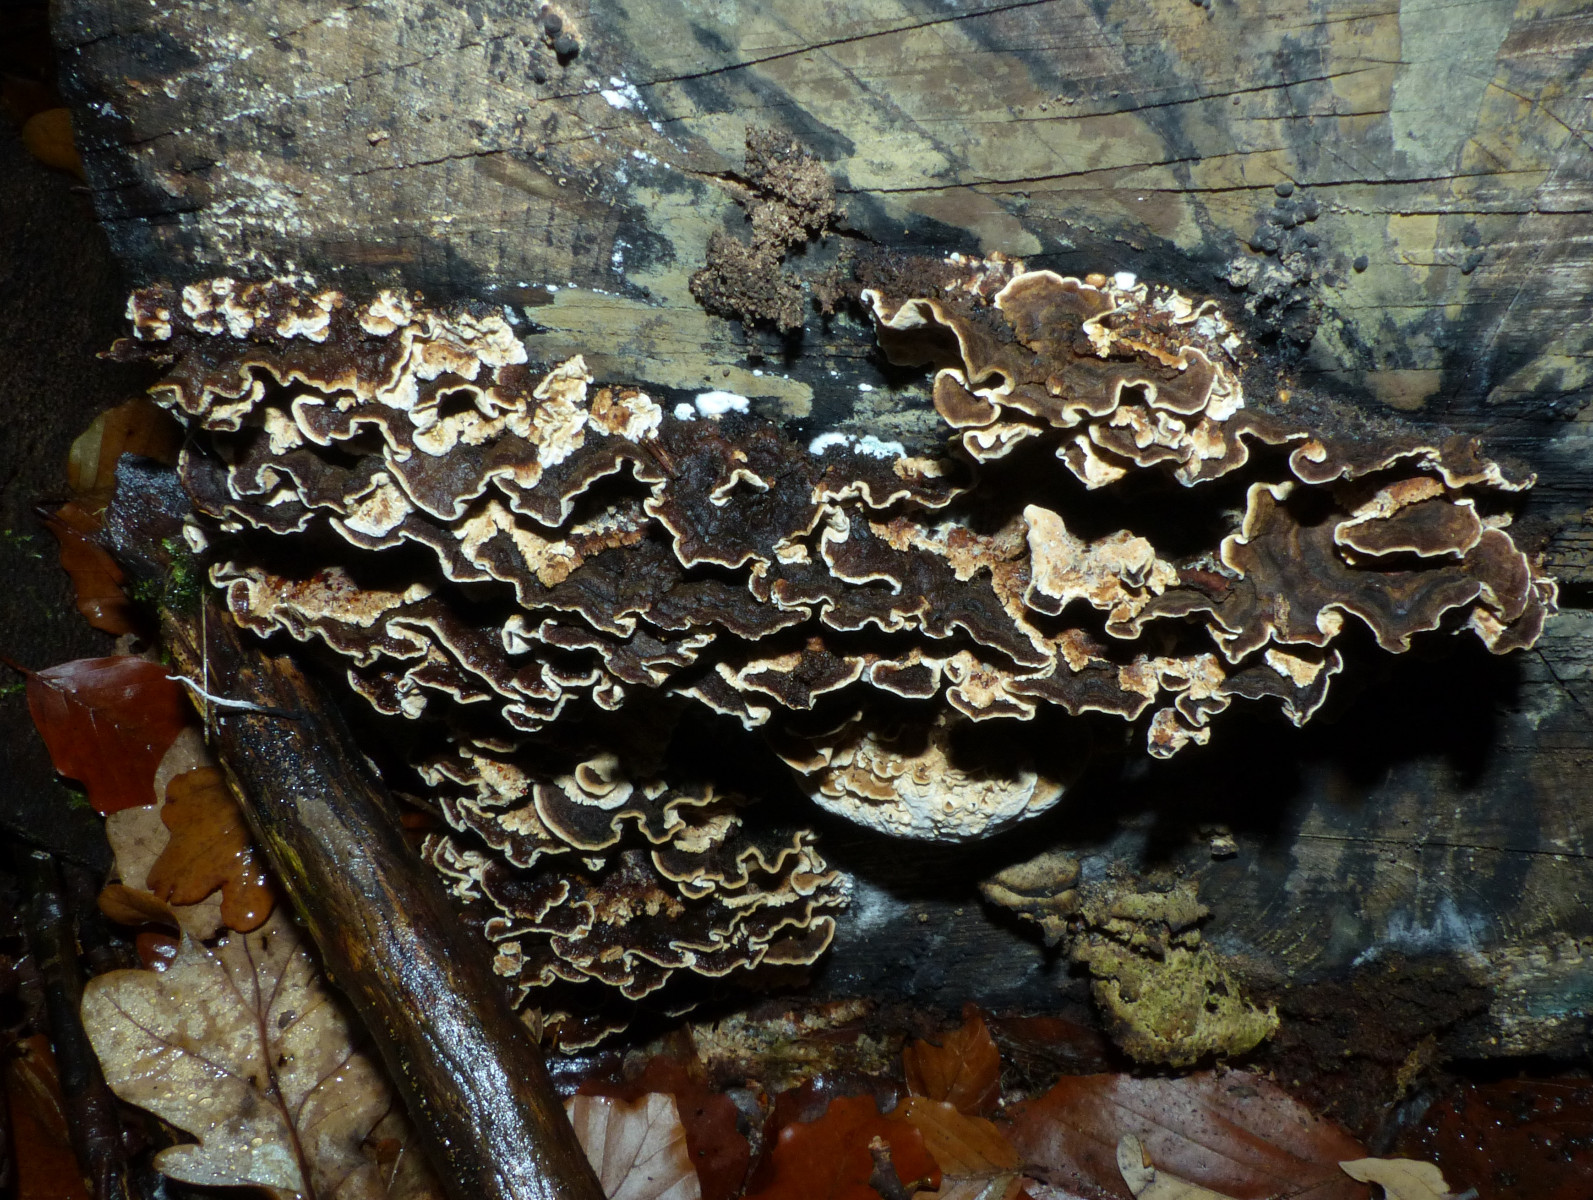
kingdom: Fungi
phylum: Basidiomycota
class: Agaricomycetes
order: Russulales
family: Hericiaceae
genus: Laxitextum
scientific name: Laxitextum bicolor
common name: tvefarvet filtskind
